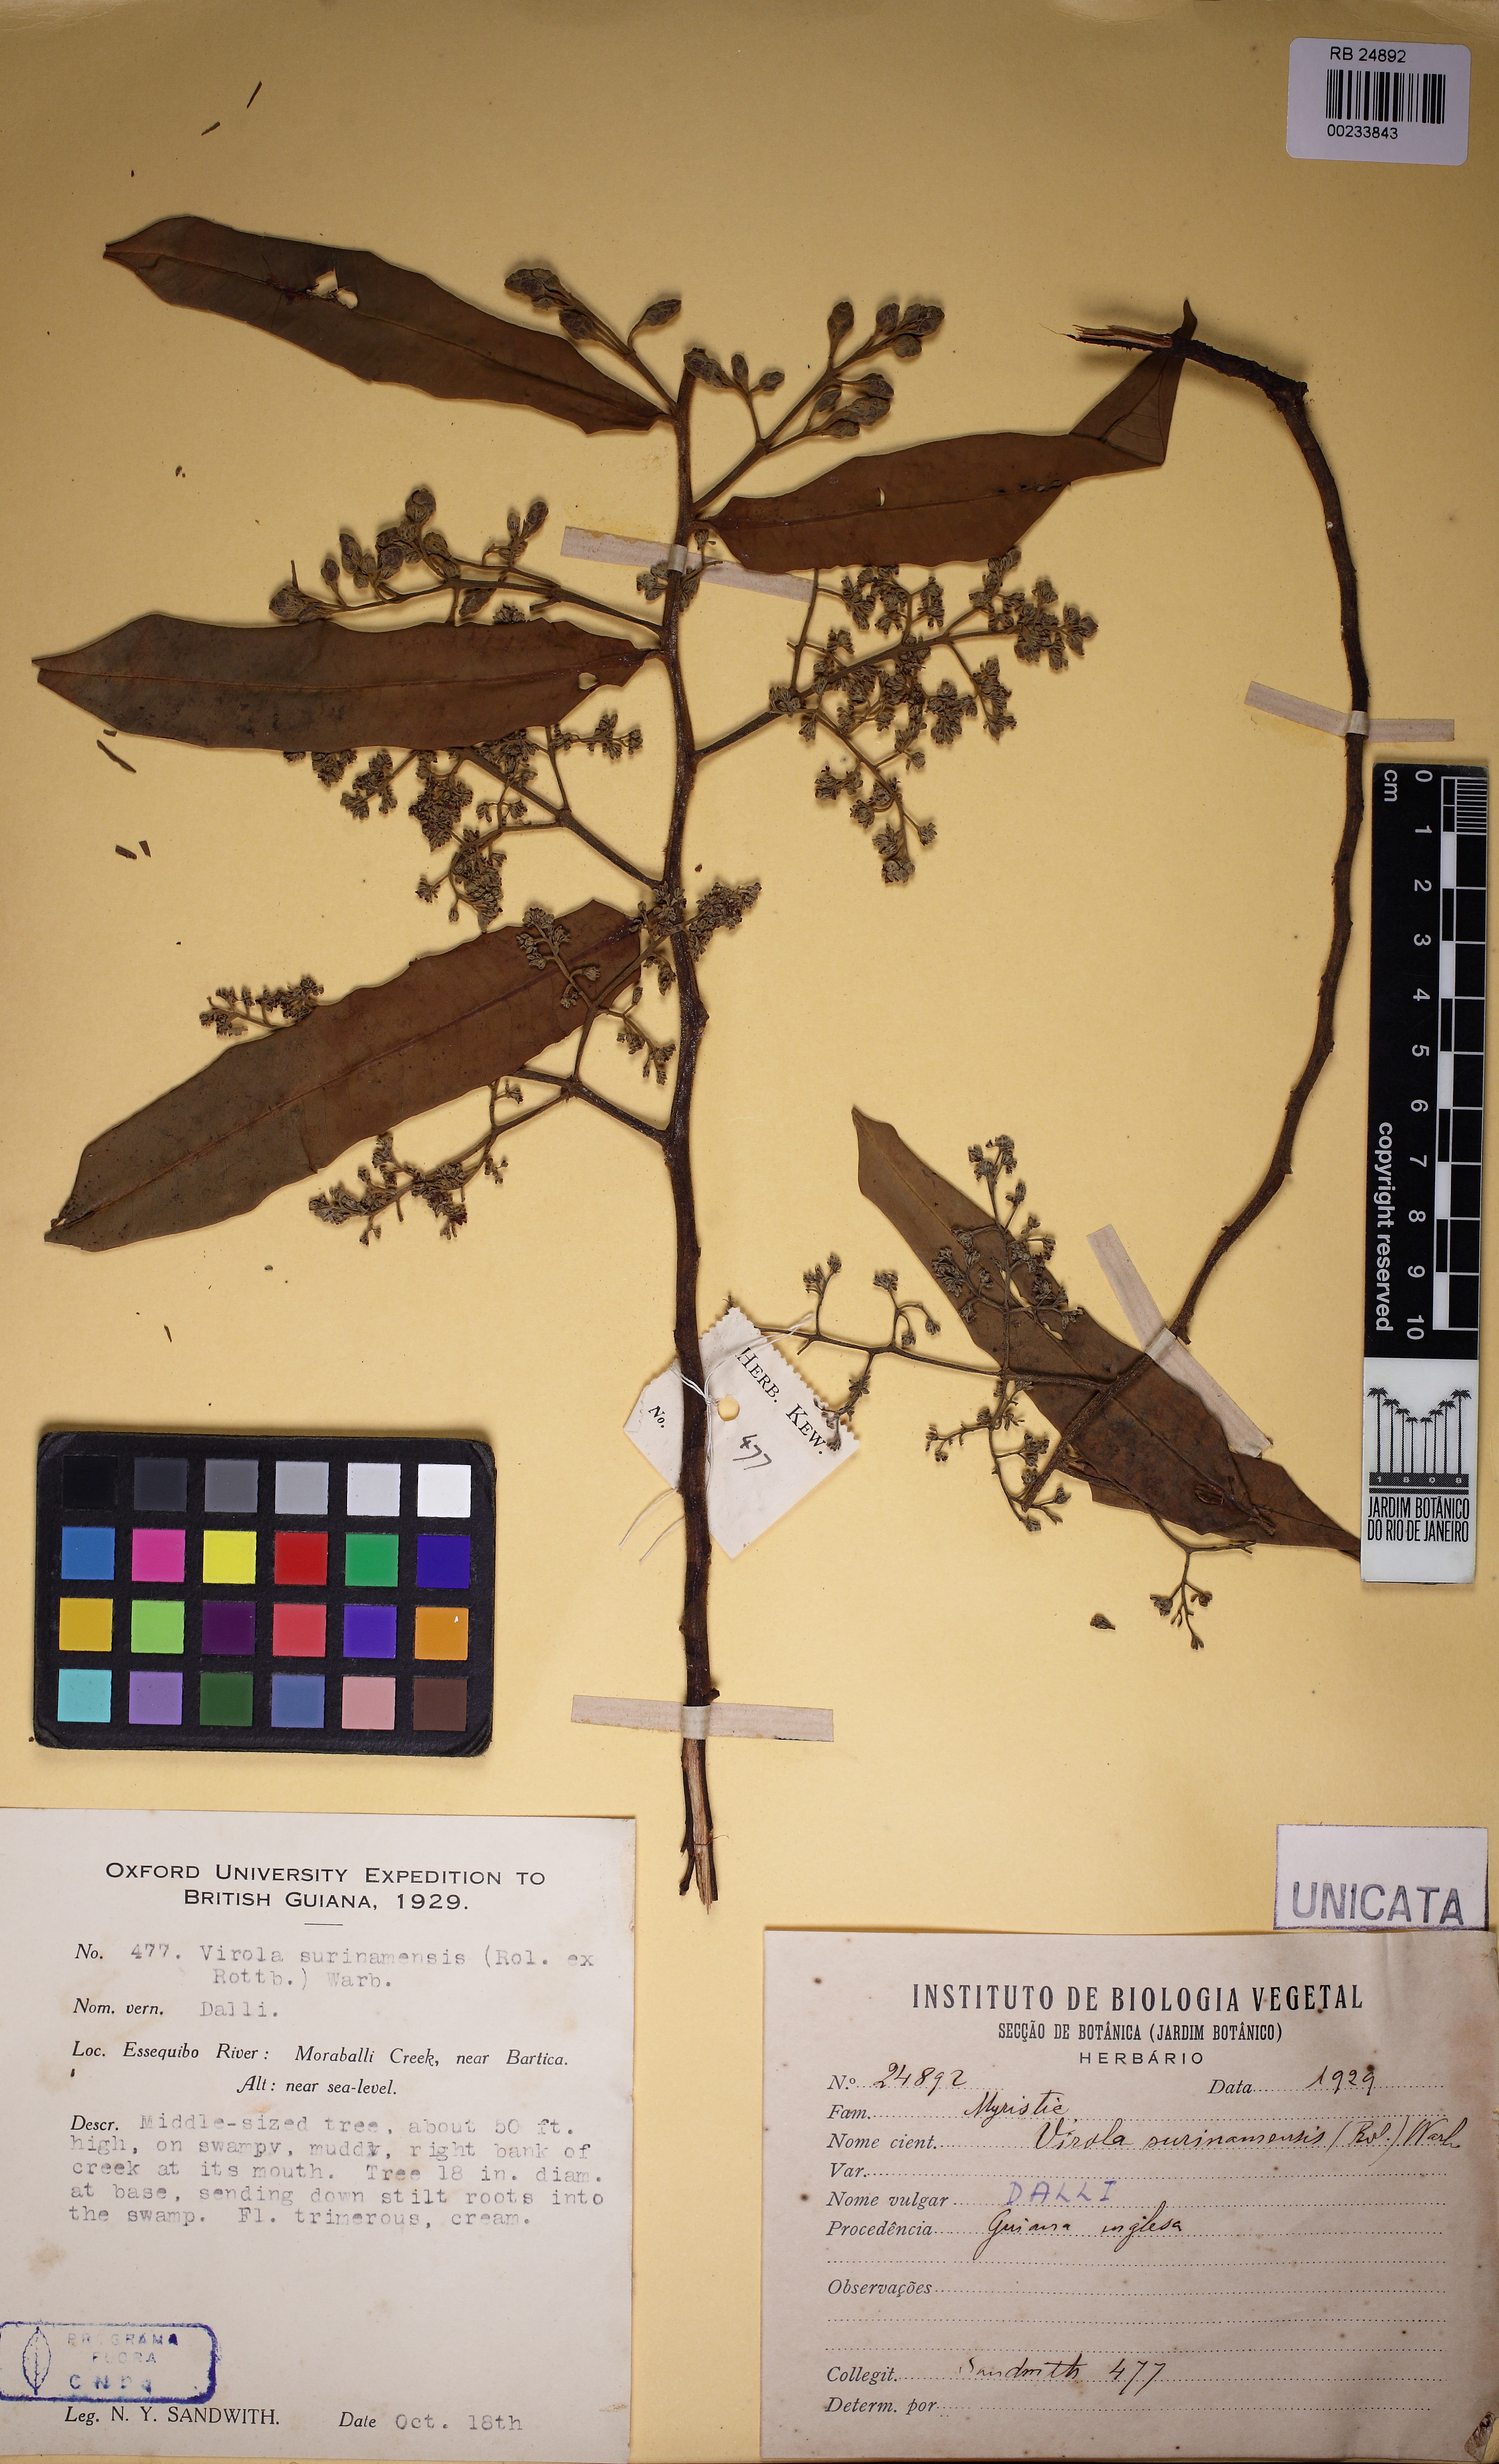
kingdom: Plantae
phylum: Tracheophyta
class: Magnoliopsida
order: Magnoliales
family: Myristicaceae
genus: Virola
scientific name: Virola surinamensis
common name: Baboonwood
